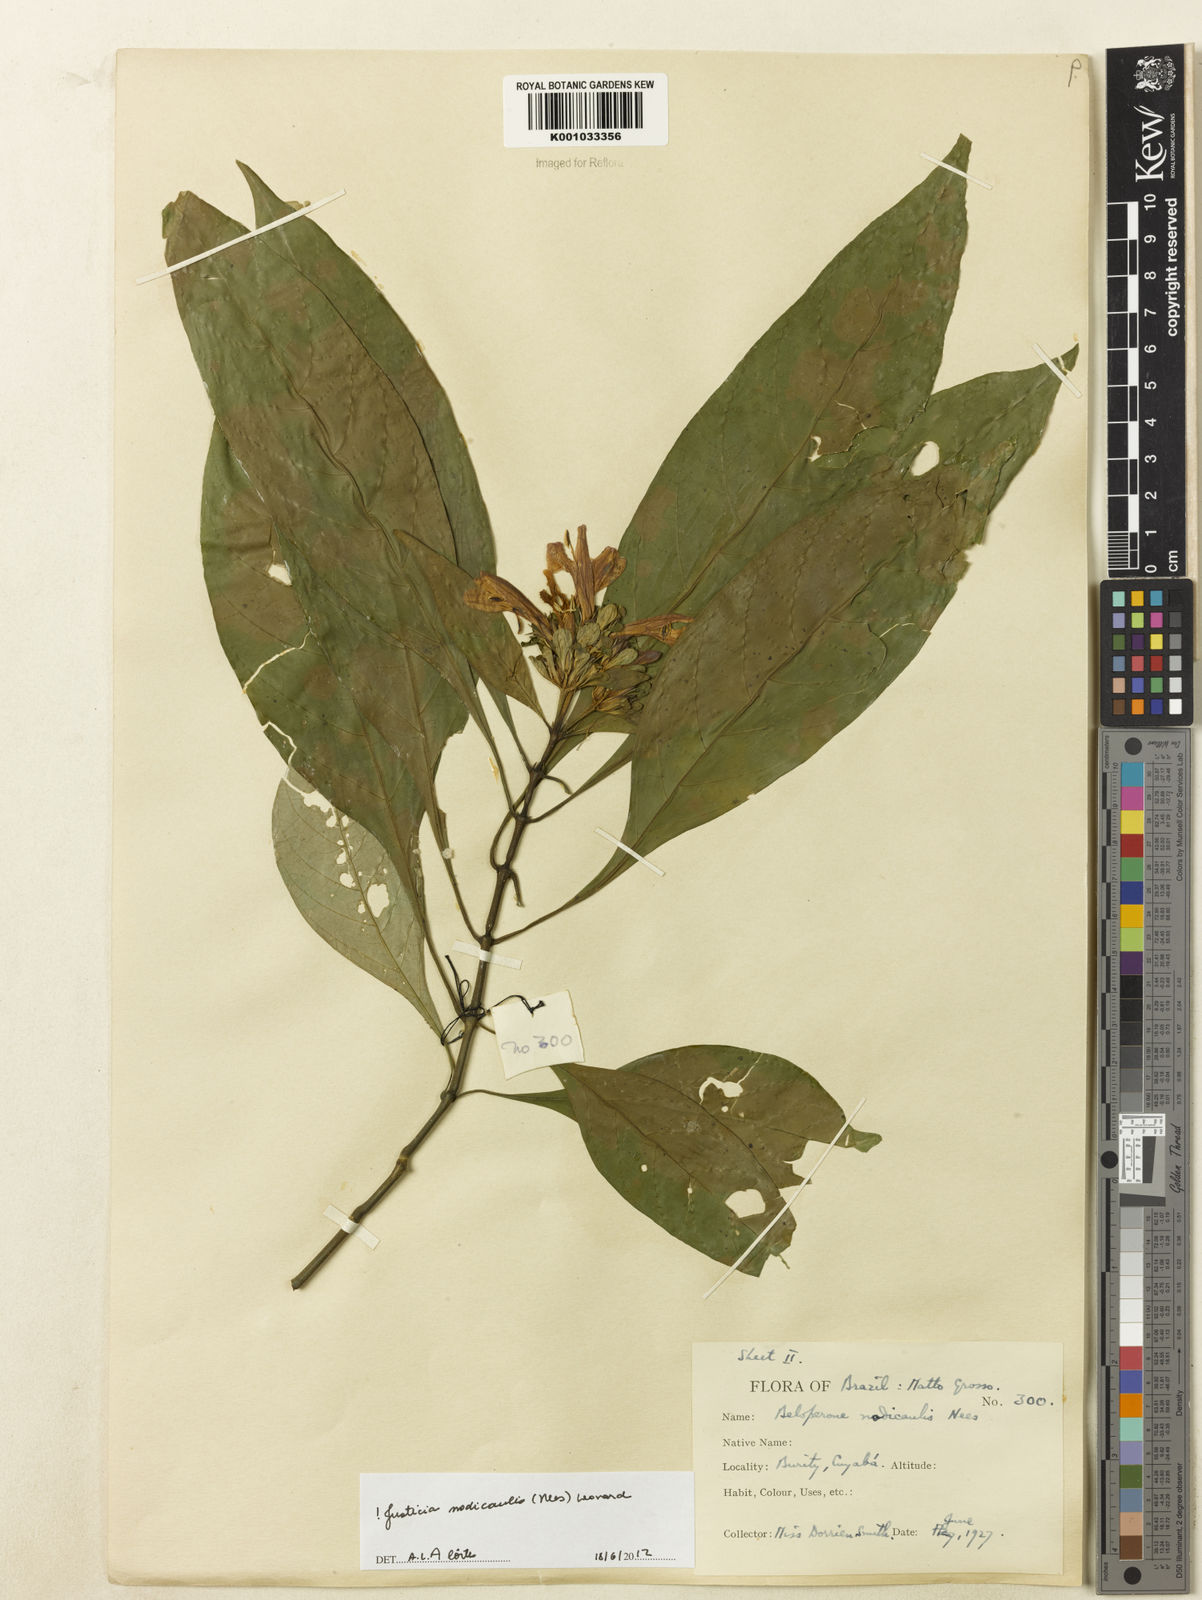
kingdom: Plantae
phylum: Tracheophyta
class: Magnoliopsida
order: Lamiales
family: Acanthaceae
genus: Justicia
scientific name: Justicia nodicaulis
